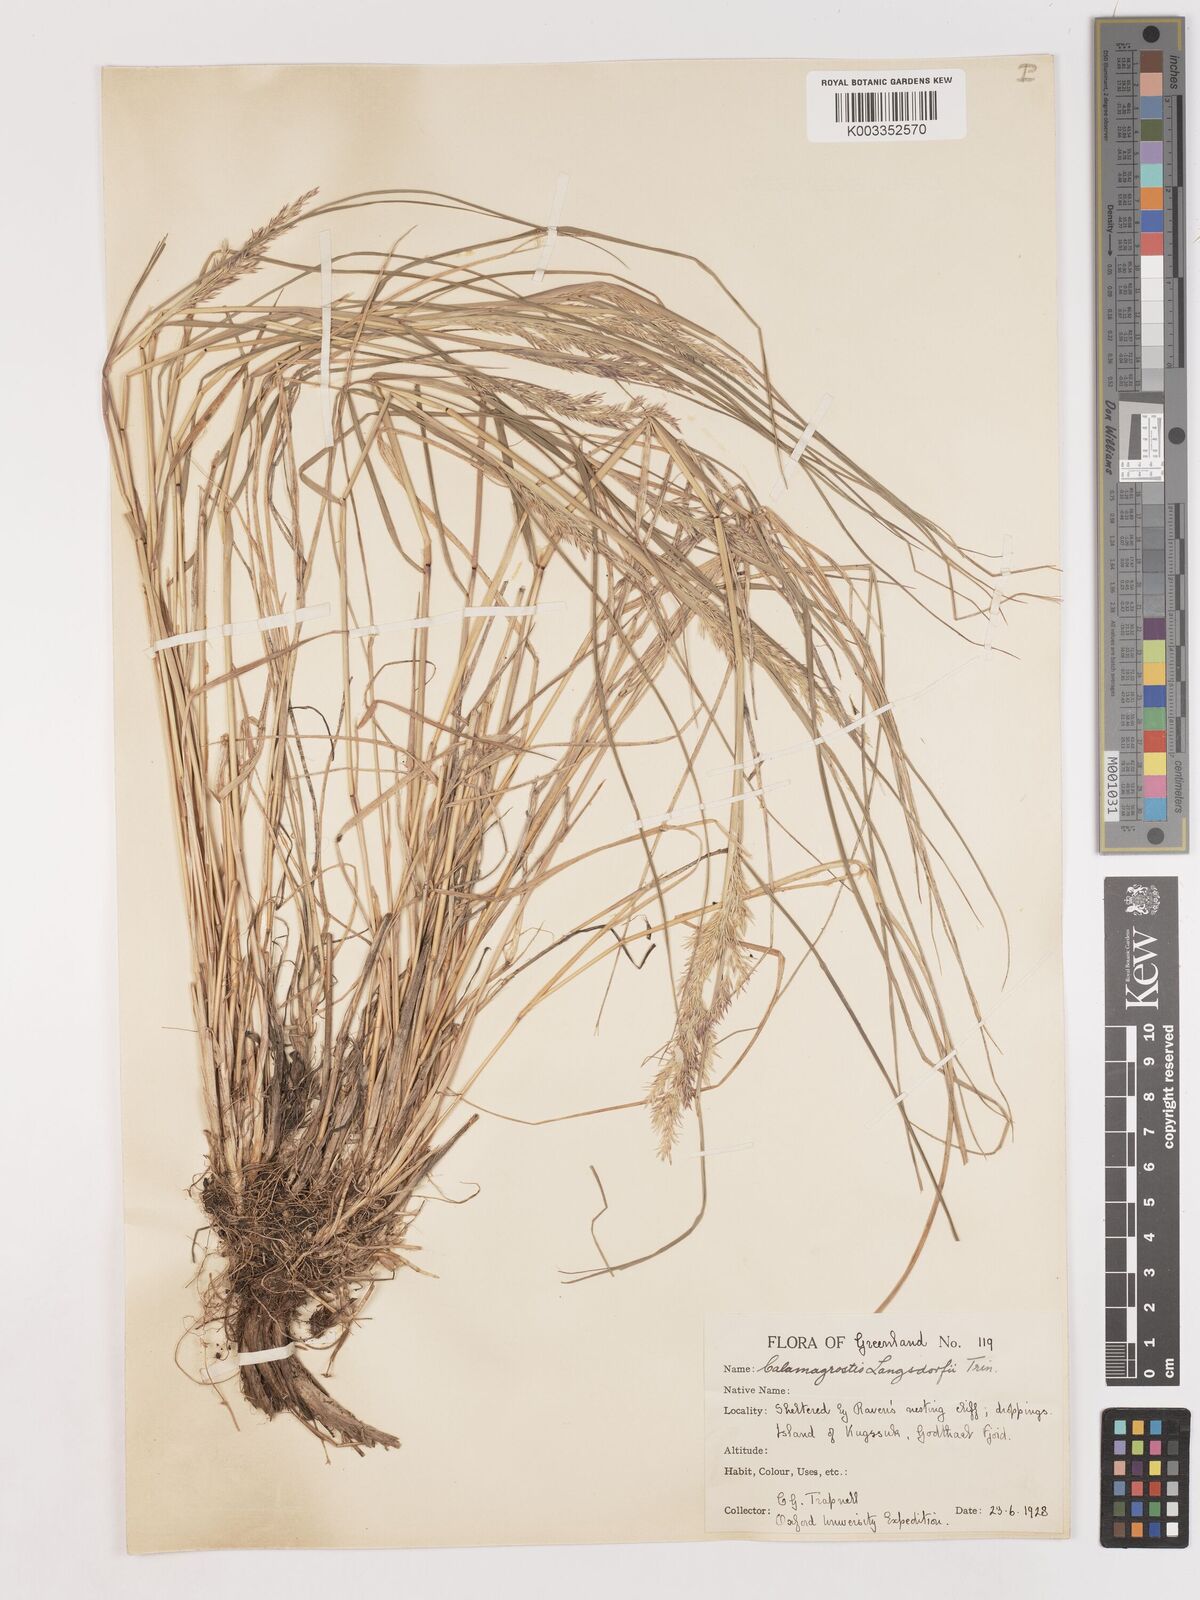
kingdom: Plantae
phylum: Tracheophyta
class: Liliopsida
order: Poales
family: Poaceae
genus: Calamagrostis
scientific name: Calamagrostis canadensis
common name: Canada bluejoint
